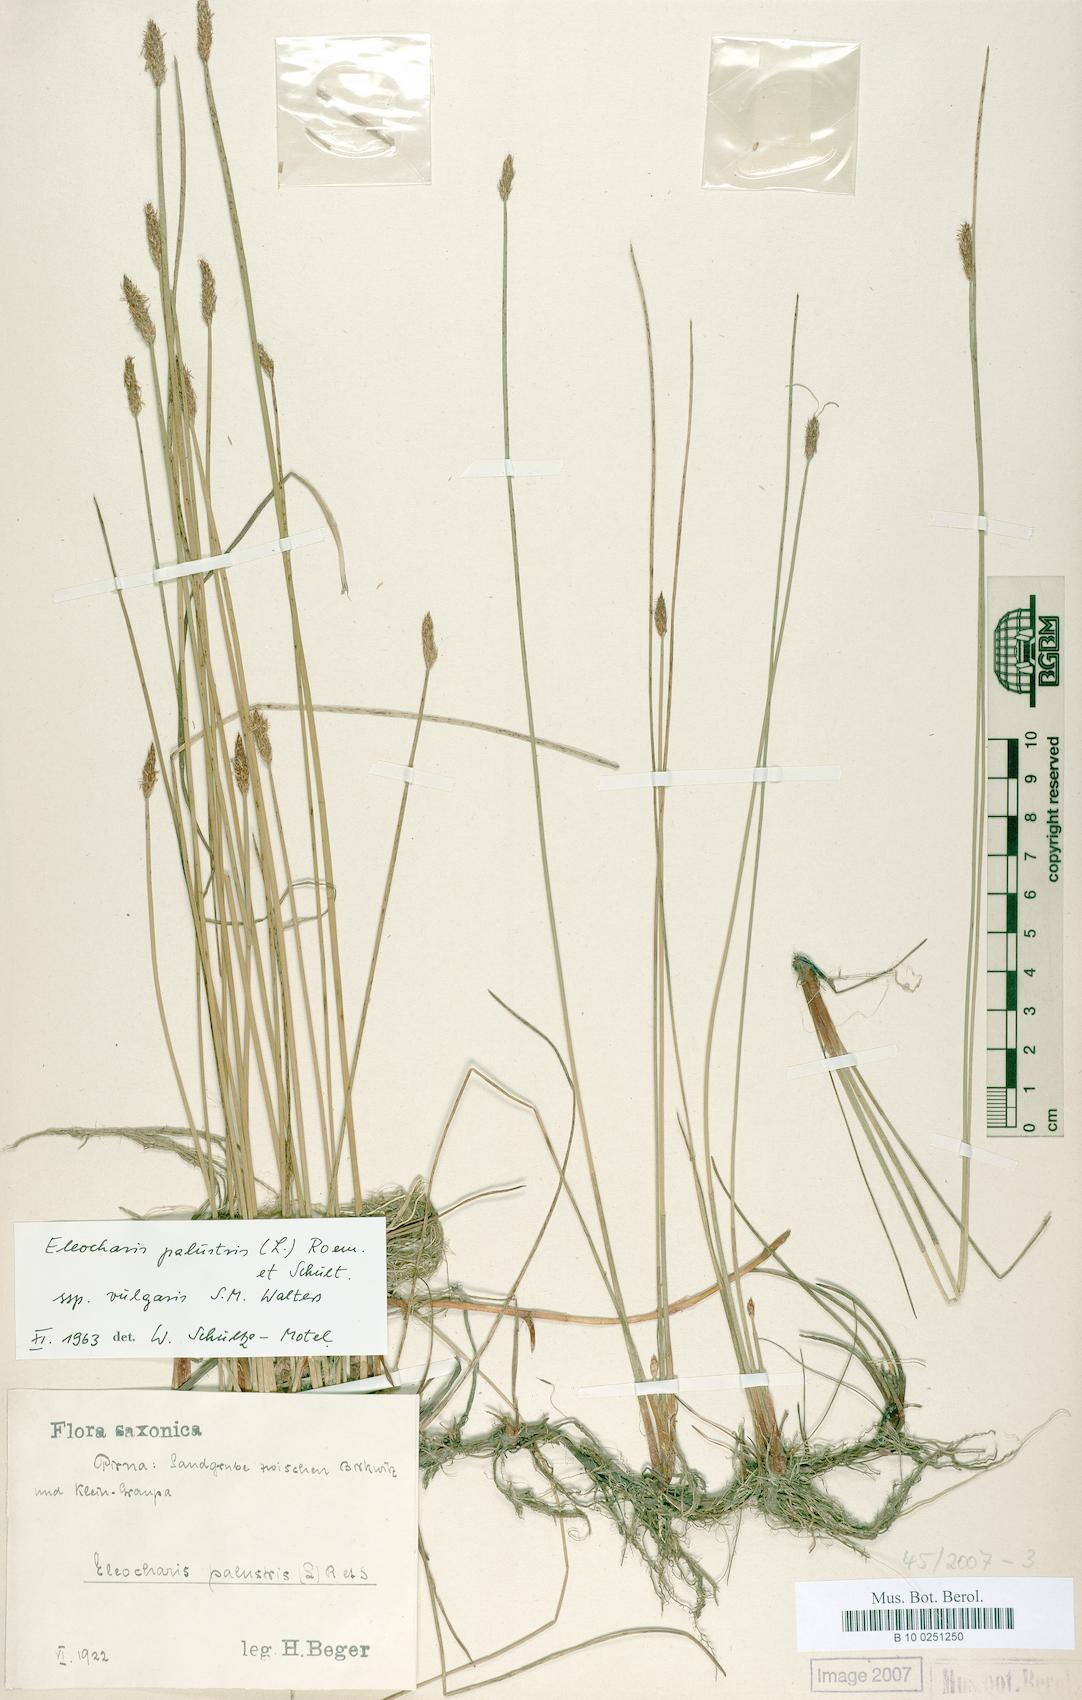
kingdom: Plantae
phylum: Tracheophyta
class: Liliopsida
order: Poales
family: Cyperaceae
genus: Eleocharis
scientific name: Eleocharis palustris
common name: Common spike-rush
